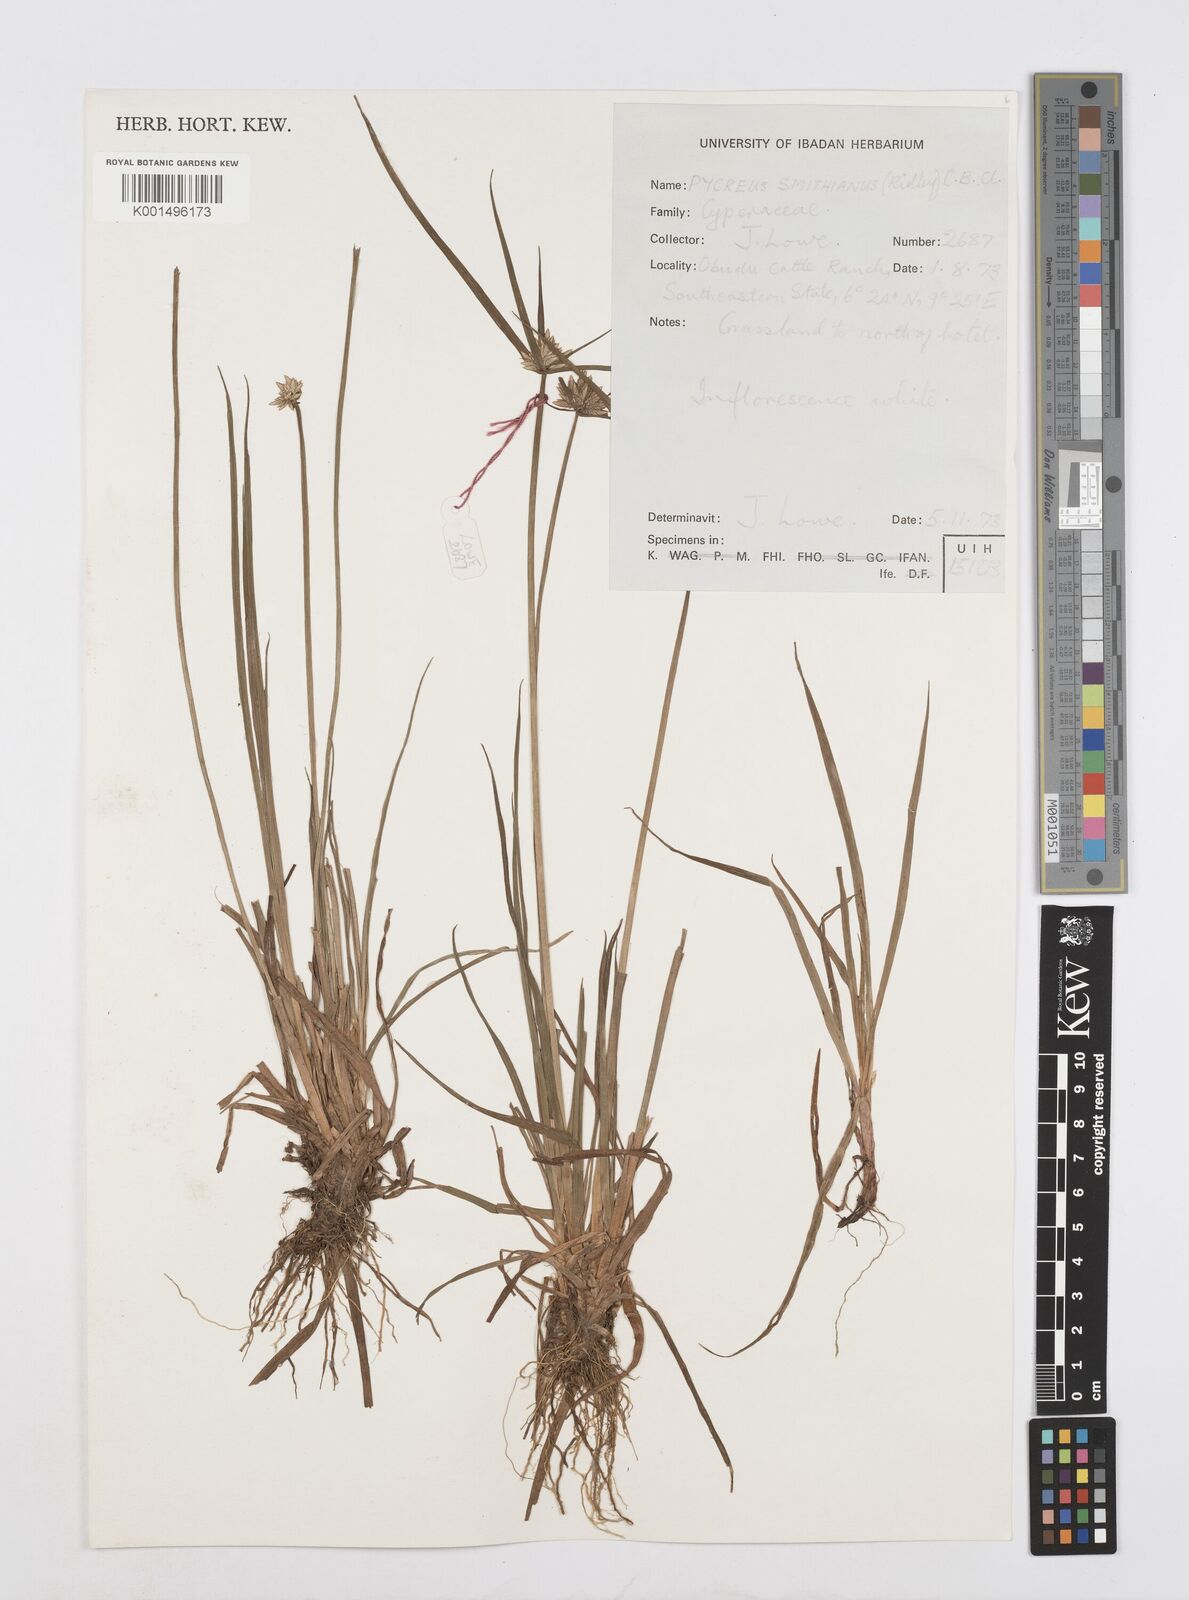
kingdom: Plantae
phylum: Tracheophyta
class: Liliopsida
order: Poales
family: Cyperaceae
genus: Cyperus
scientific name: Cyperus smithianus
